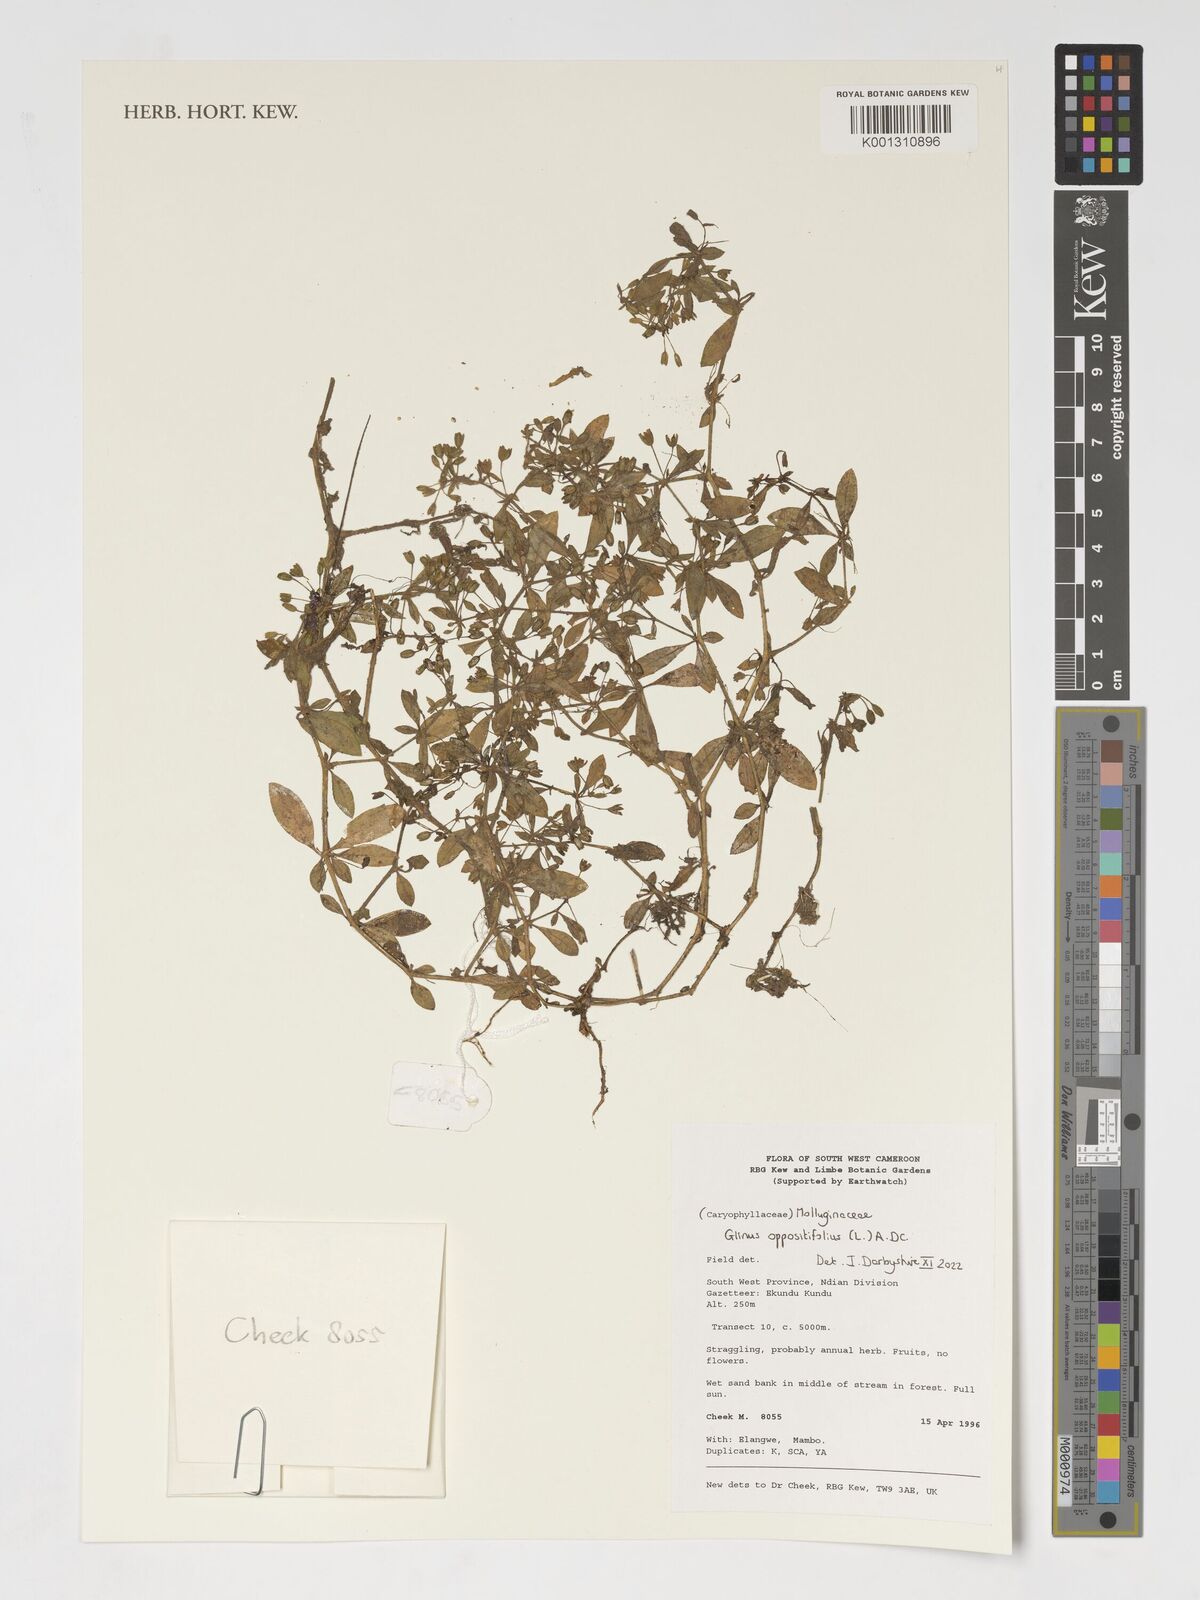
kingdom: Plantae
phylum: Tracheophyta
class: Magnoliopsida
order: Caryophyllales
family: Molluginaceae
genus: Glinus
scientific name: Glinus oppositifolius
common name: Slender carpetweed
